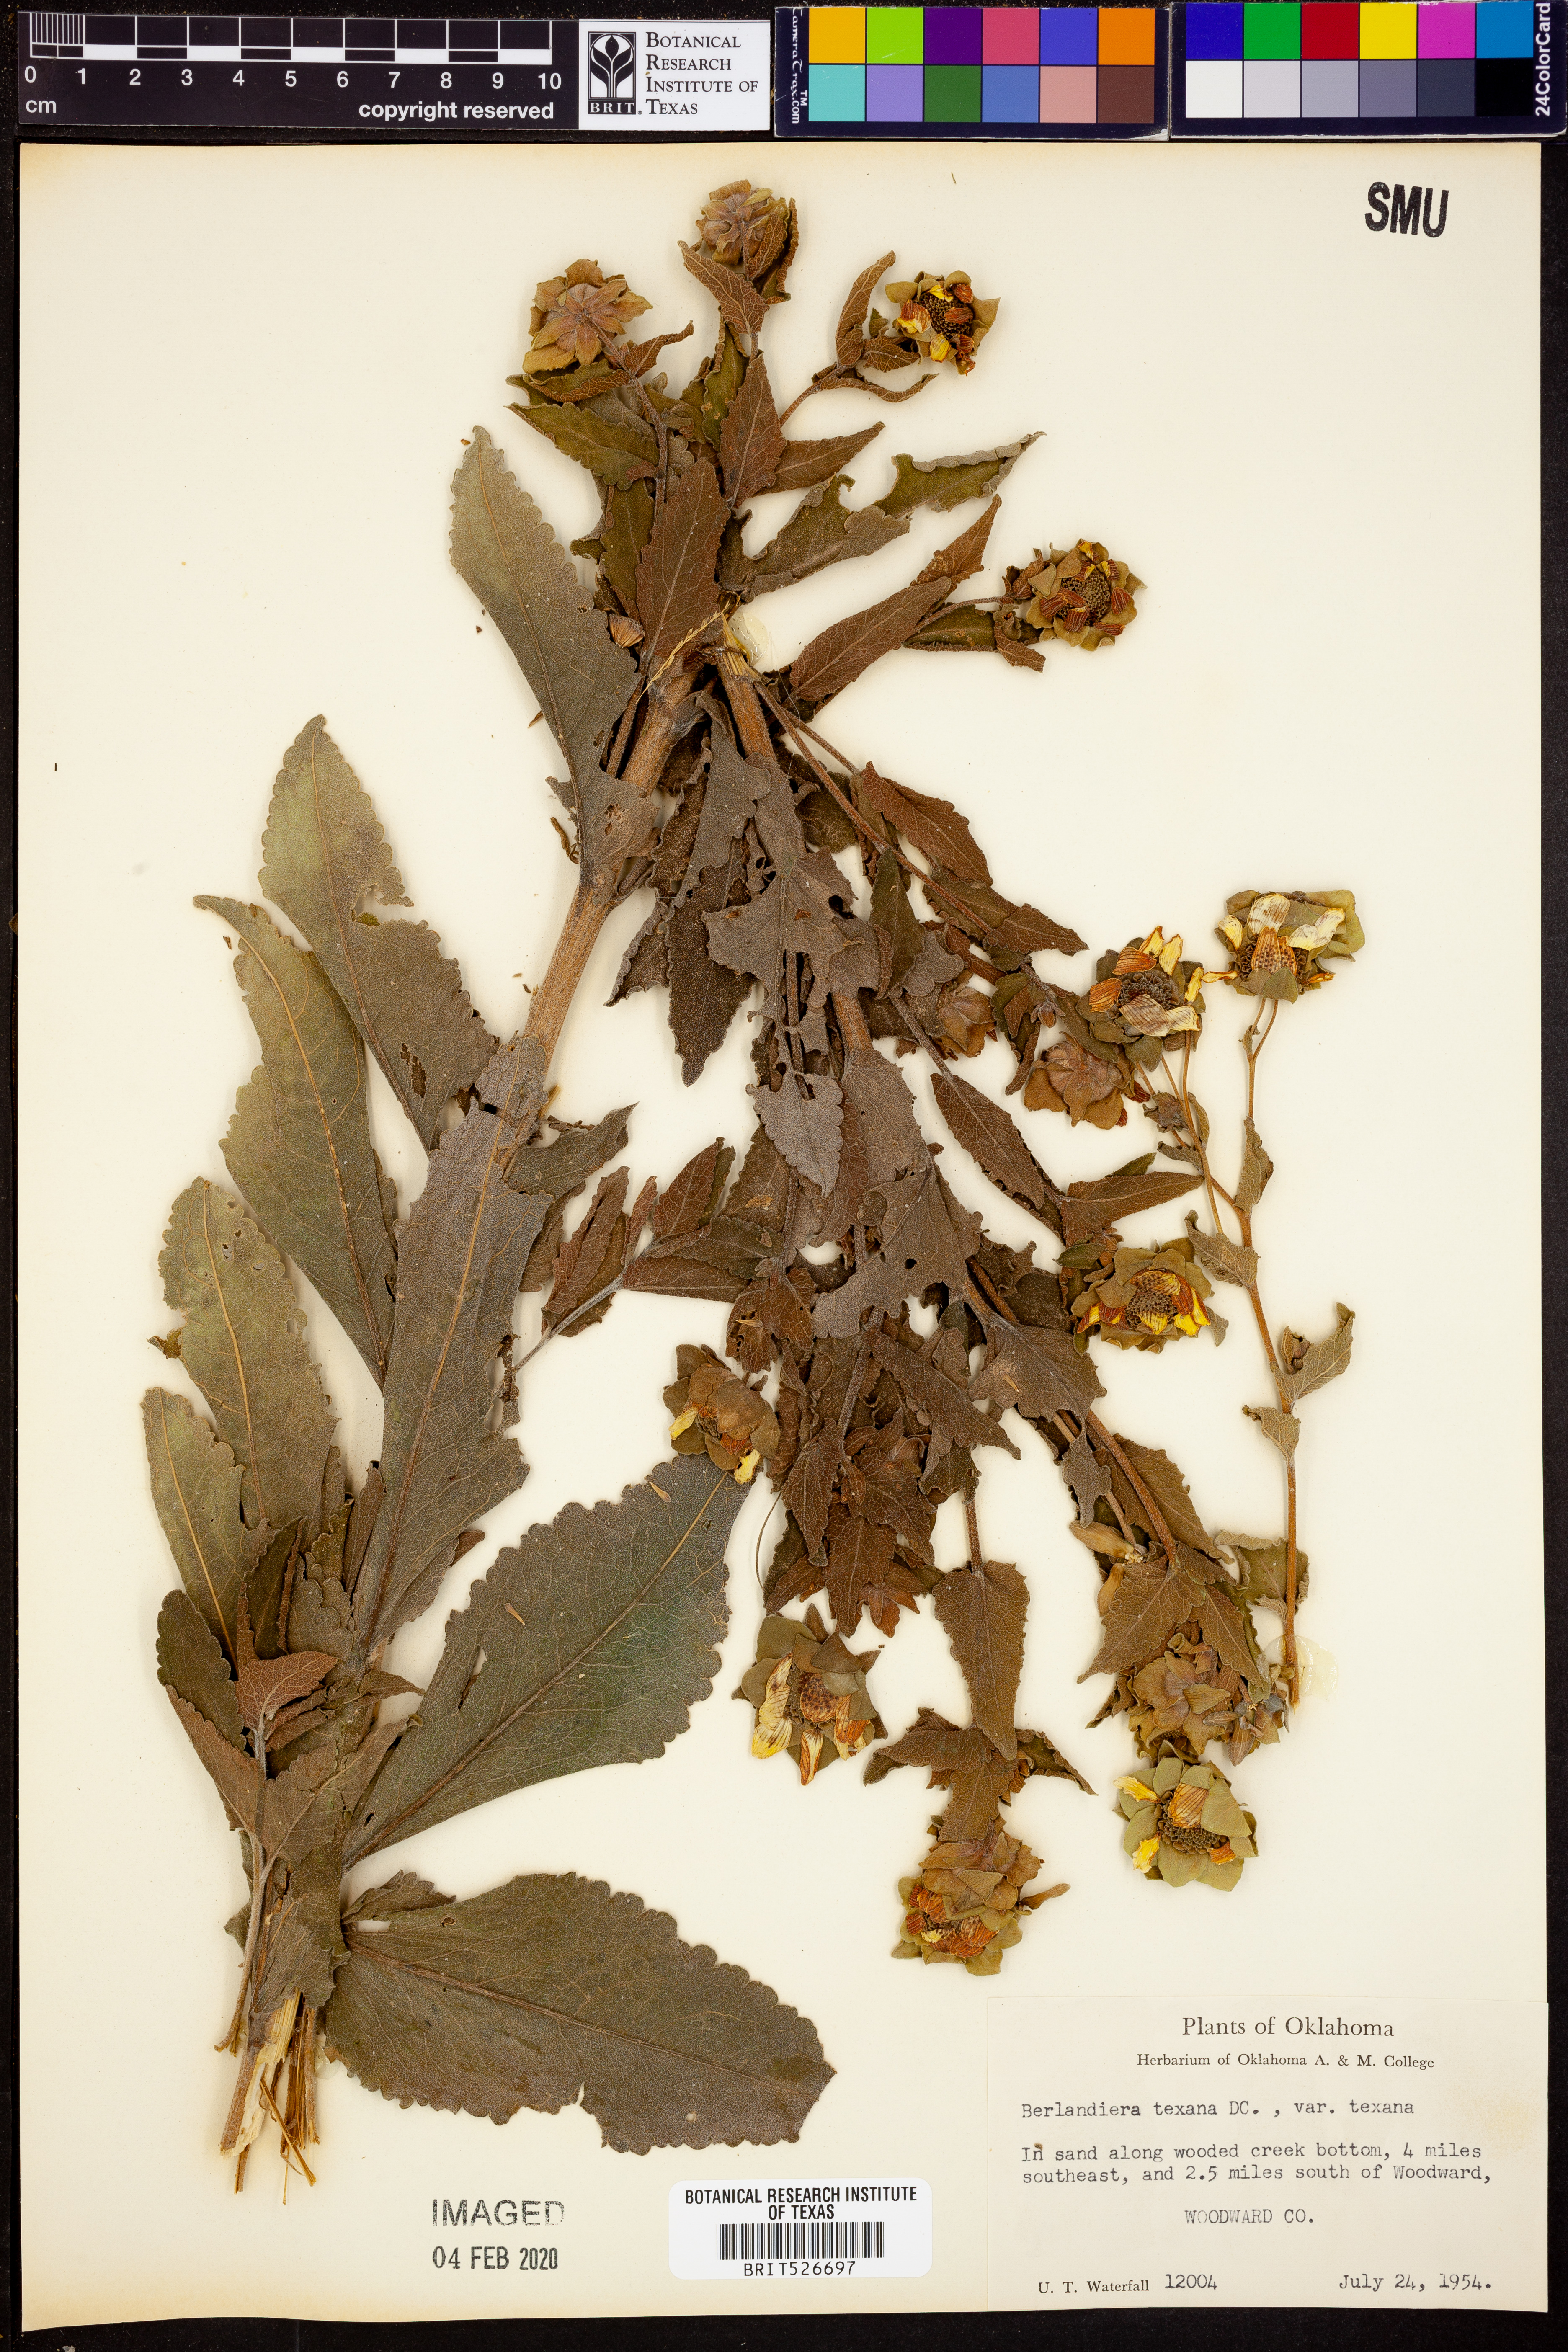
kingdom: Plantae
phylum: Tracheophyta
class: Magnoliopsida
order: Asterales
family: Asteraceae
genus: Berlandiera
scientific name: Berlandiera texana
